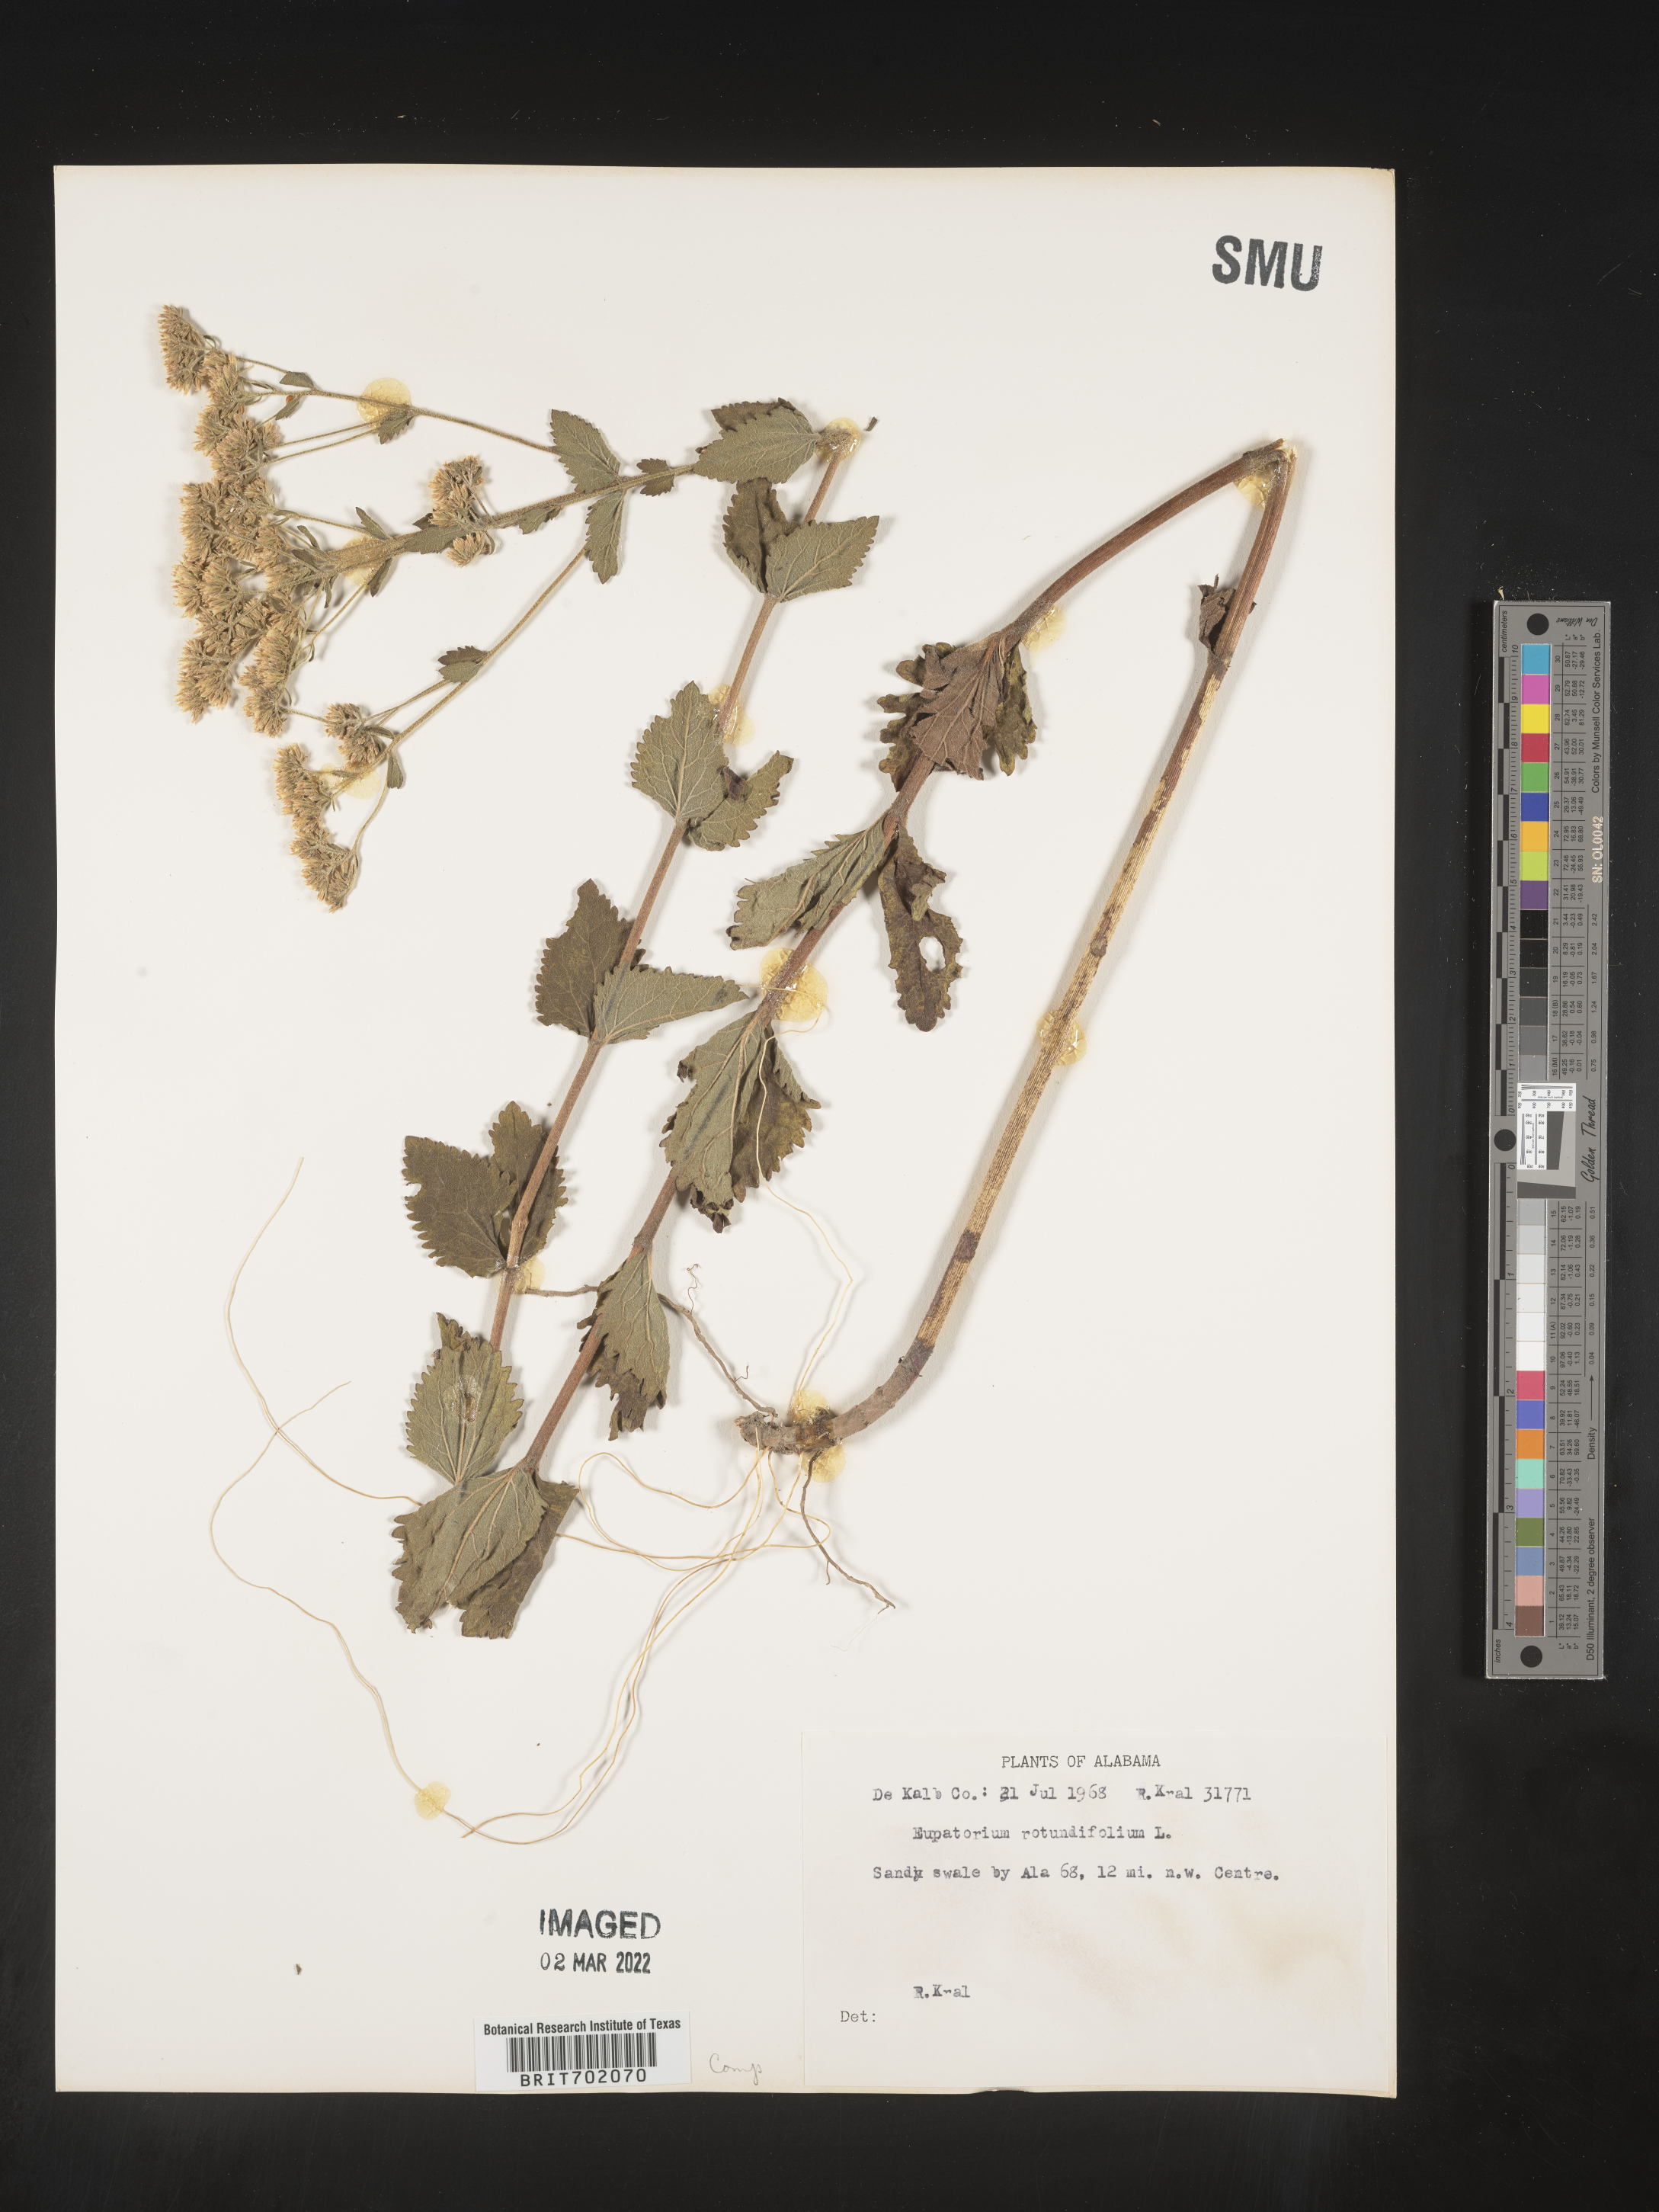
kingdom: Plantae
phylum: Tracheophyta
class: Magnoliopsida
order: Asterales
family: Asteraceae
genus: Eupatorium
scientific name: Eupatorium rotundifolium
